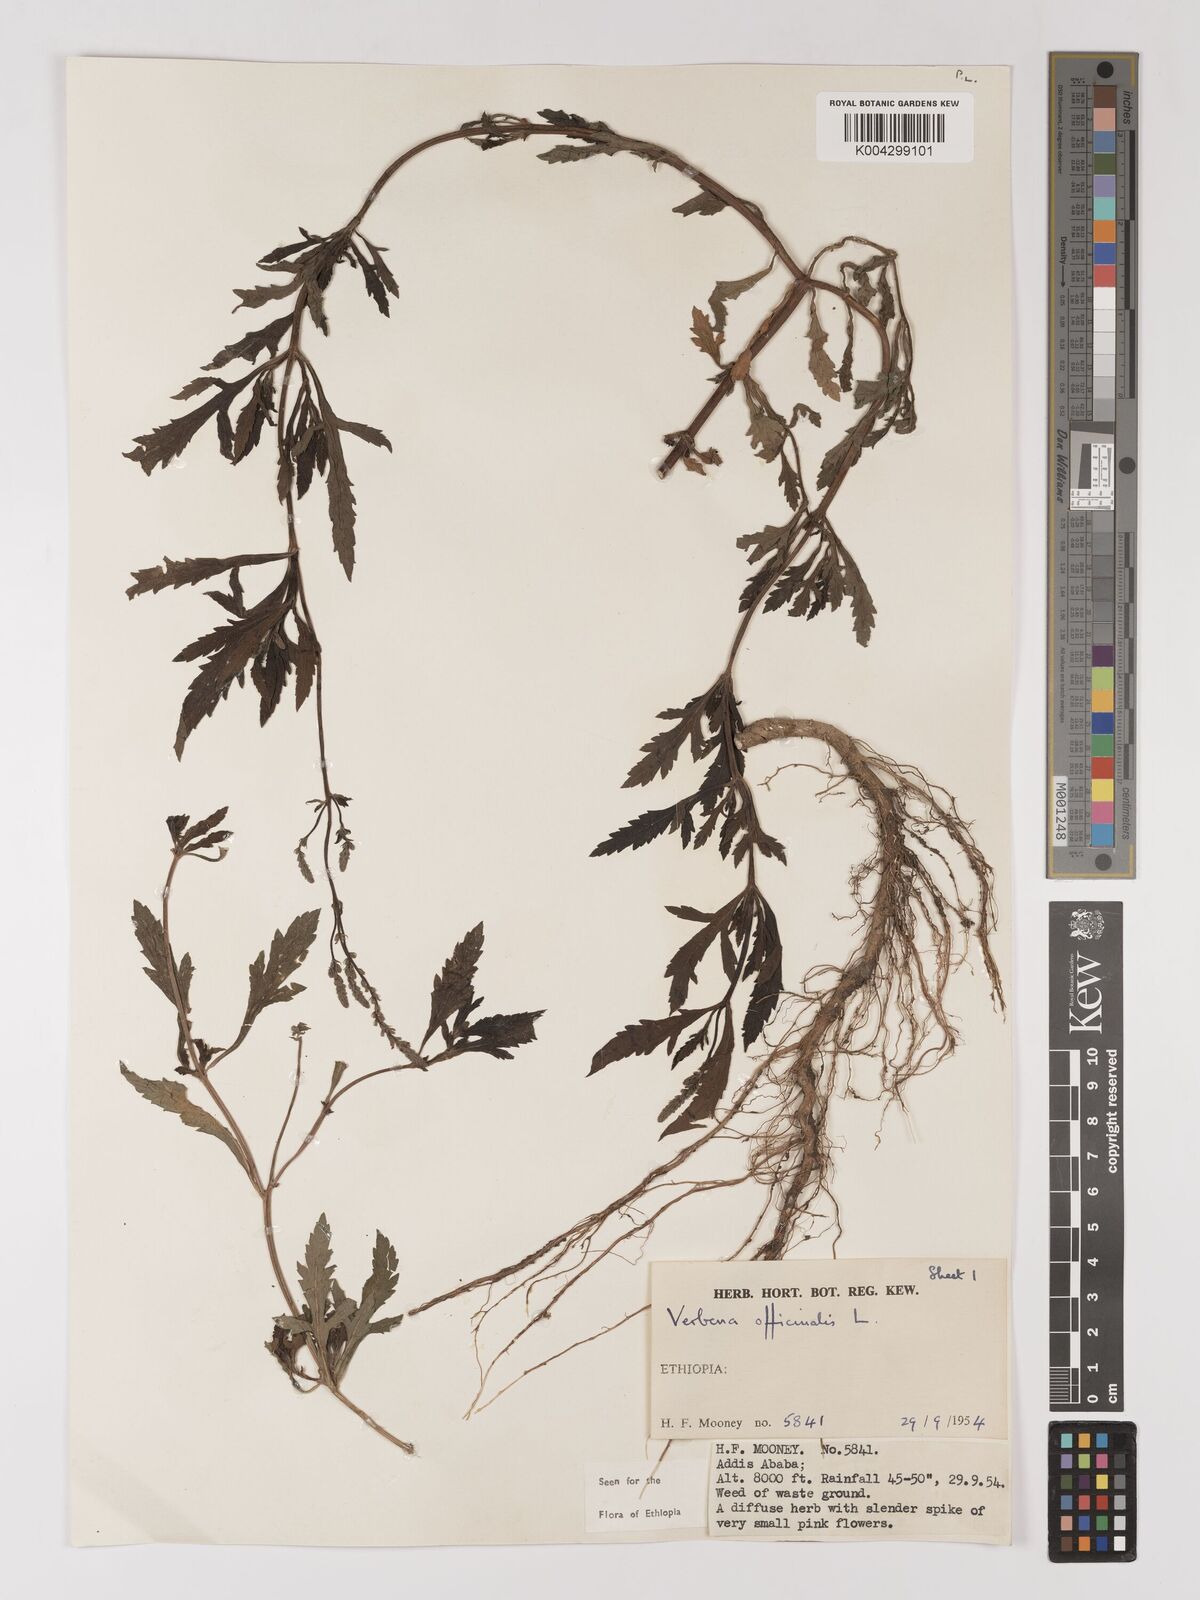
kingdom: Plantae
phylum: Tracheophyta
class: Magnoliopsida
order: Lamiales
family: Verbenaceae
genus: Verbena
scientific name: Verbena officinalis
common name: Vervain
